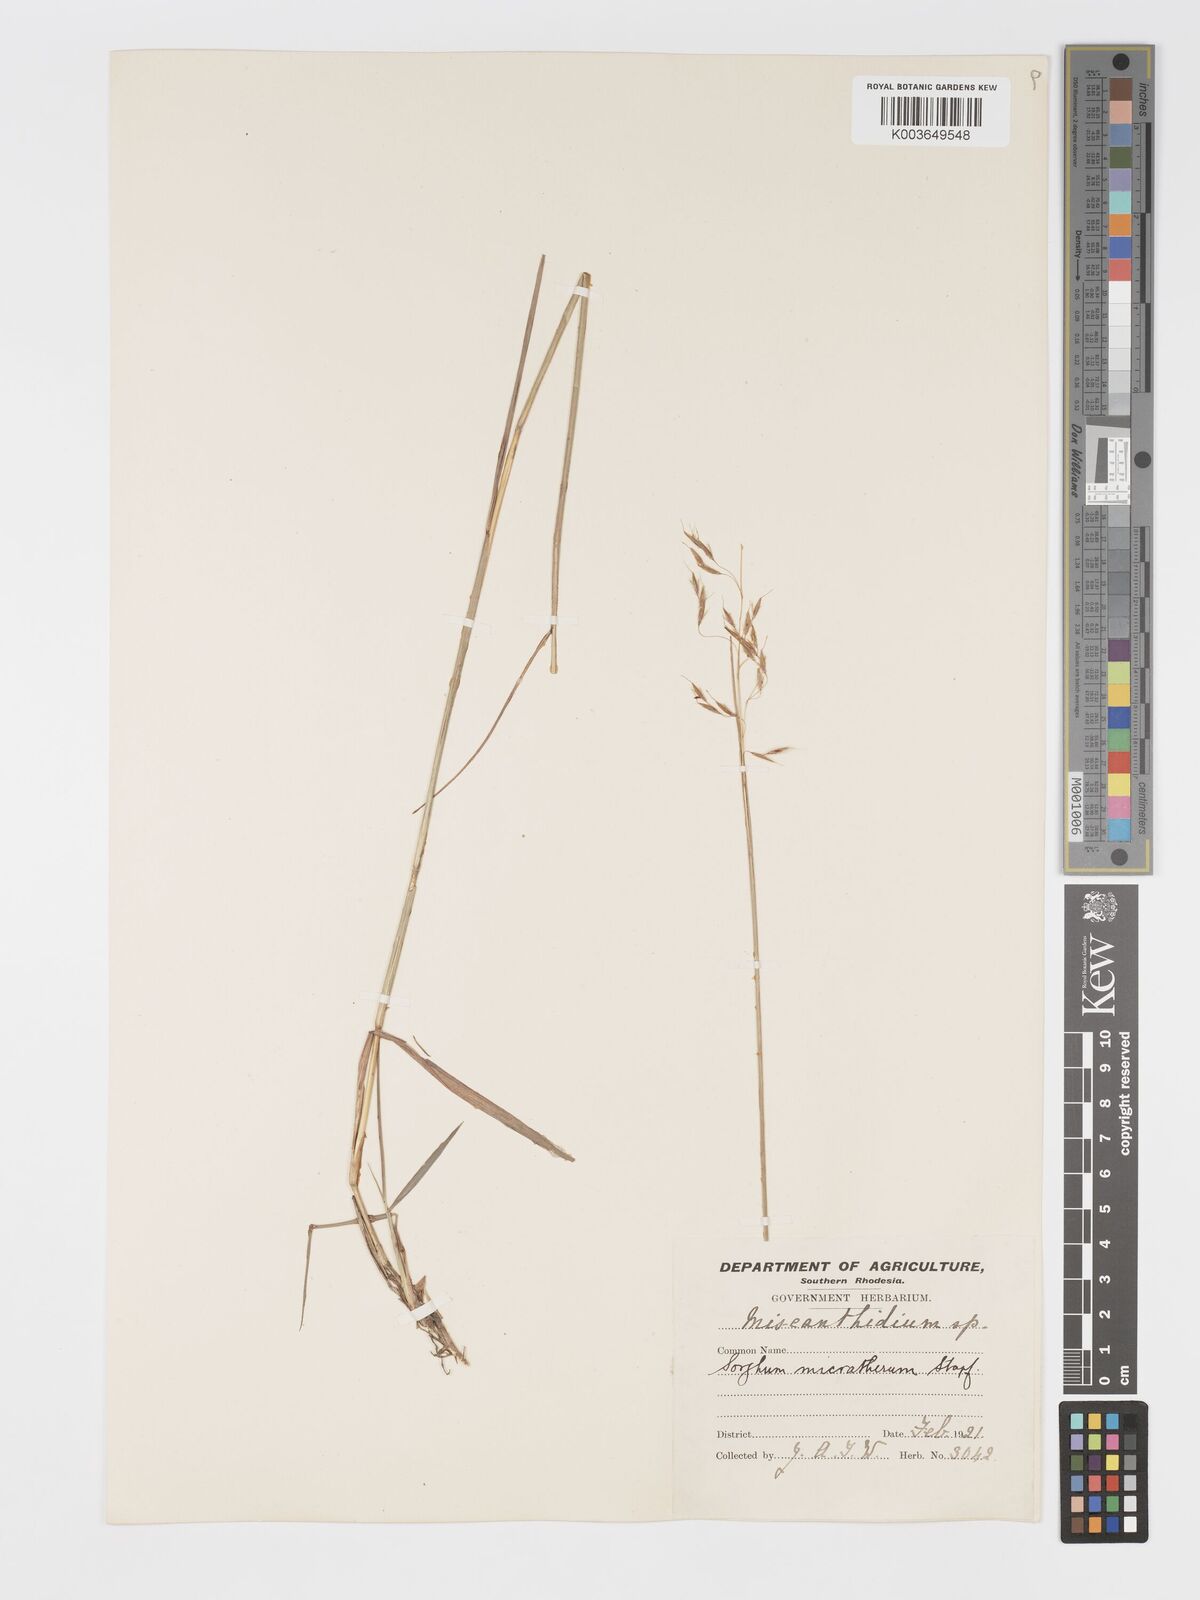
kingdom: Plantae
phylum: Tracheophyta
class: Liliopsida
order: Poales
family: Poaceae
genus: Sorghastrum
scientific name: Sorghastrum nudipes
